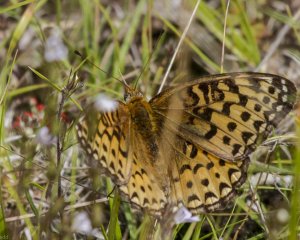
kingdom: Animalia
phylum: Arthropoda
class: Insecta
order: Lepidoptera
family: Nymphalidae
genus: Speyeria
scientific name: Speyeria atlantis
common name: Atlantis Fritillary
